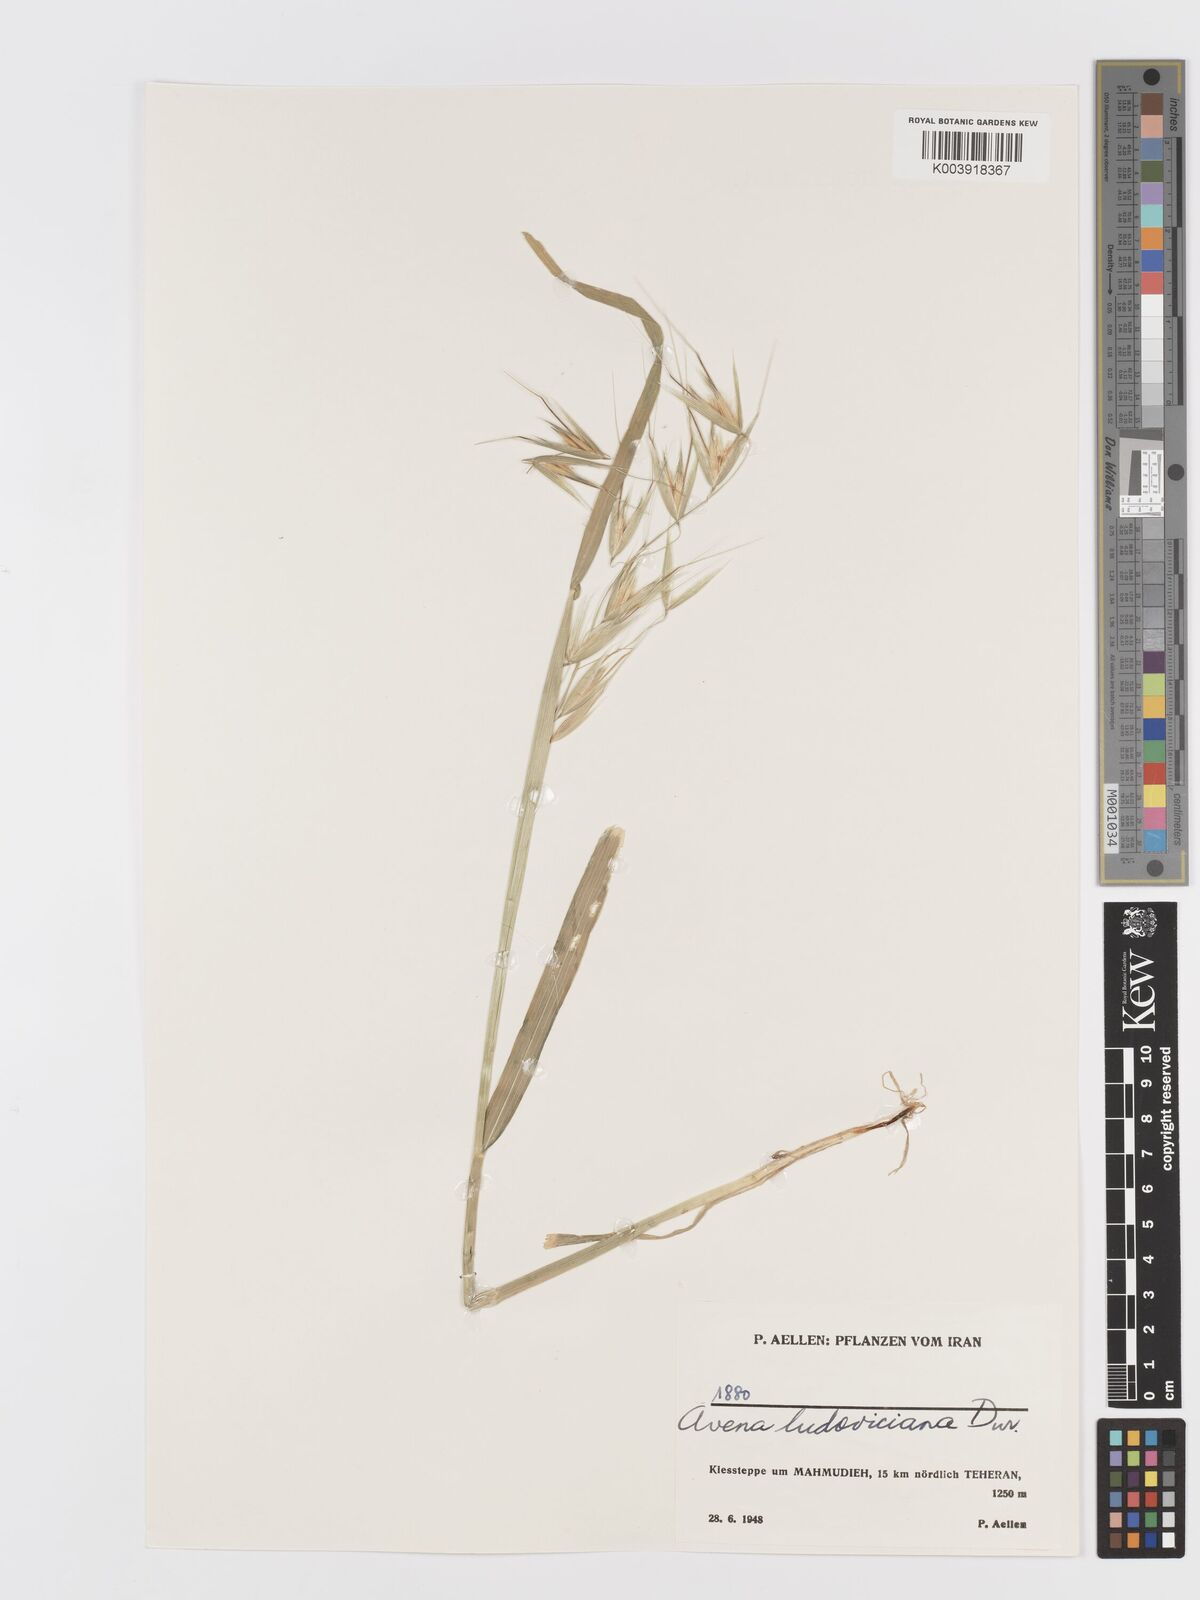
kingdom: Plantae
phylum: Tracheophyta
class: Liliopsida
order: Poales
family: Poaceae
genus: Avena
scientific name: Avena sterilis
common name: Animated oat
